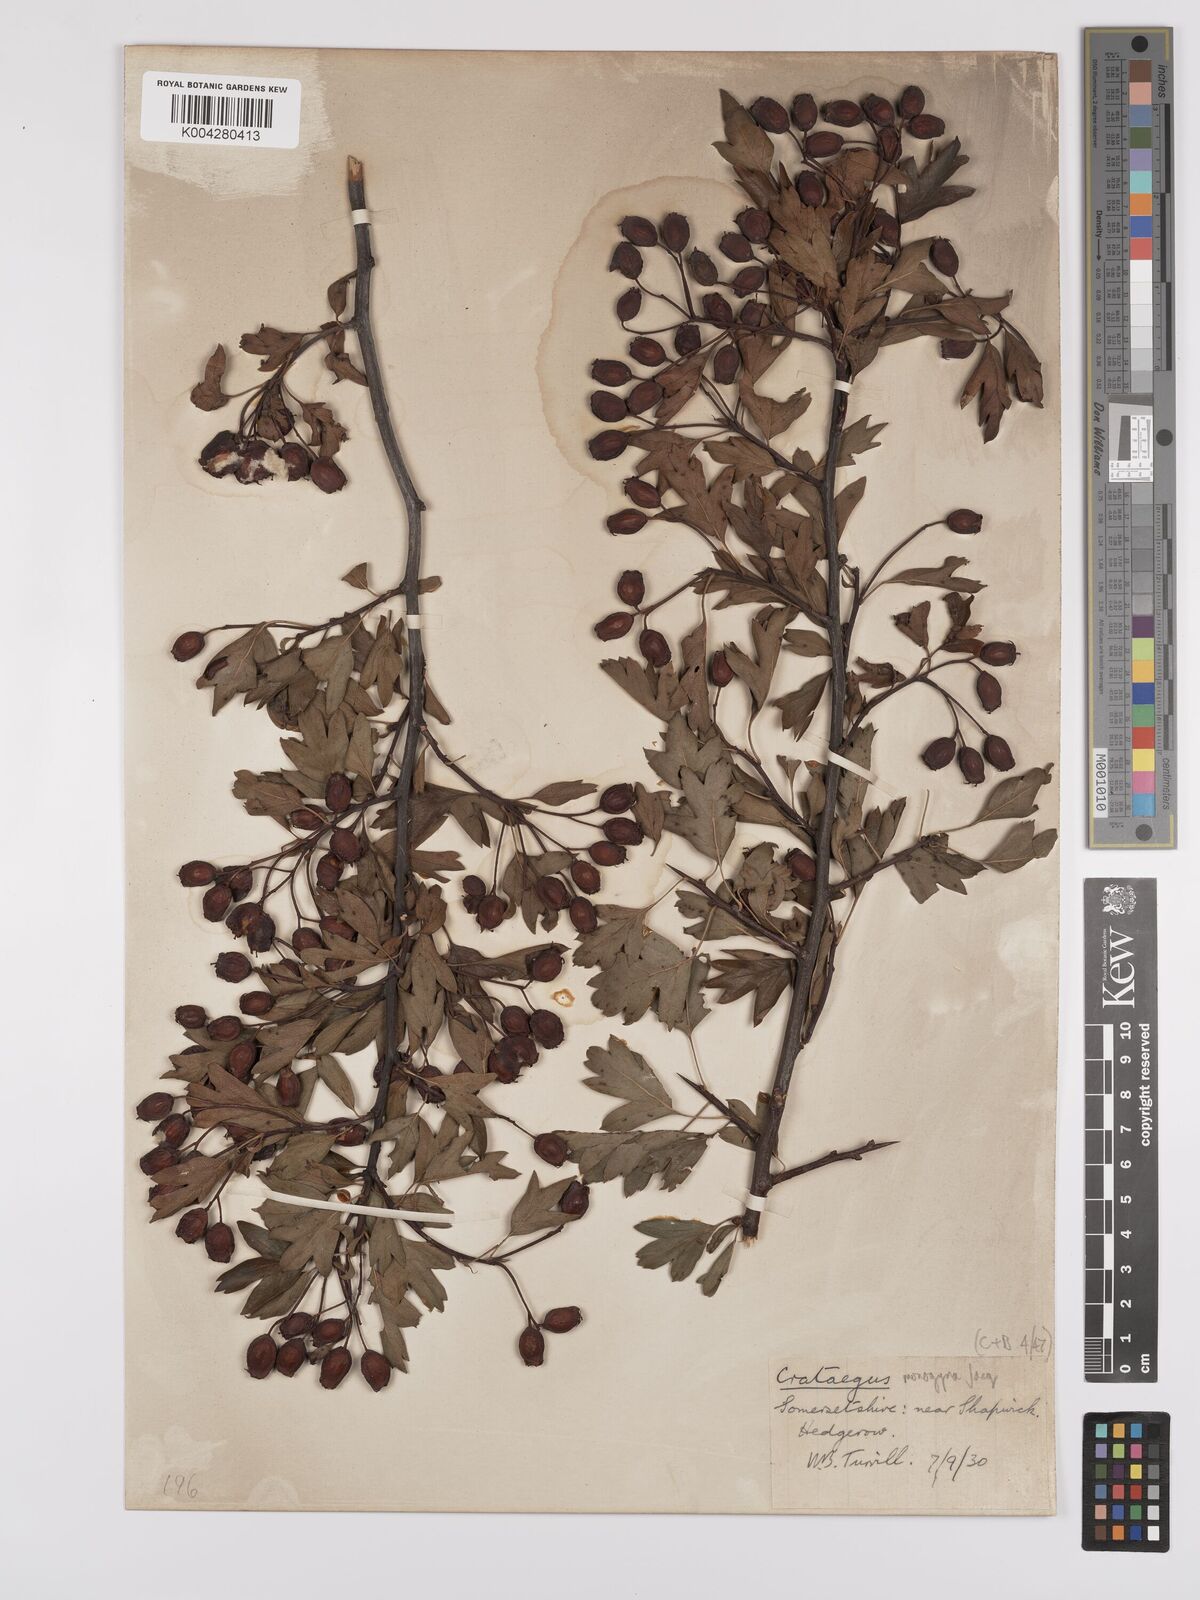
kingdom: Plantae
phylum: Tracheophyta
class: Magnoliopsida
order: Rosales
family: Rosaceae
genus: Crataegus
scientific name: Crataegus monogyna
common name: Hawthorn
